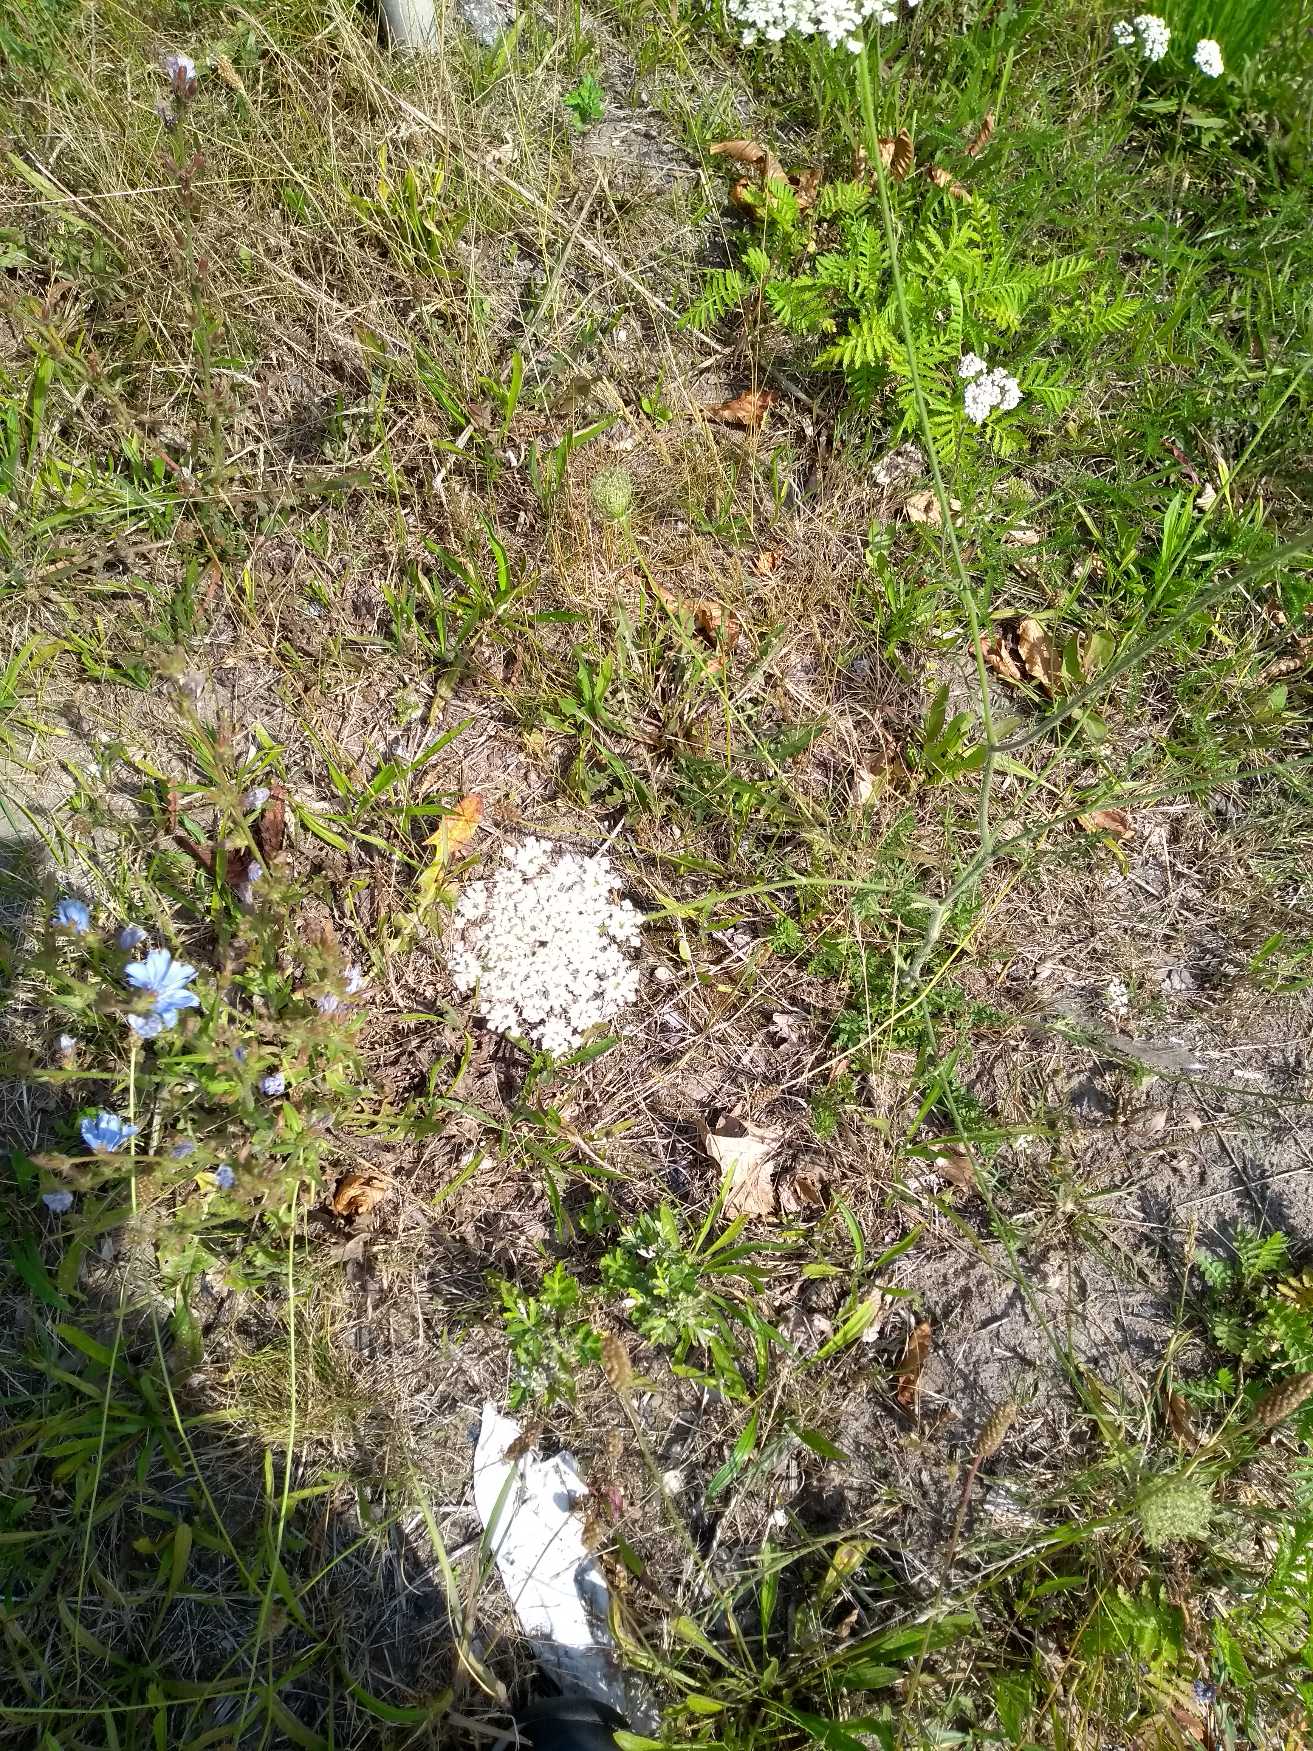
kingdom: Plantae
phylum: Tracheophyta
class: Magnoliopsida
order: Apiales
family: Apiaceae
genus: Daucus
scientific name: Daucus carota
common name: Vild gulerod
